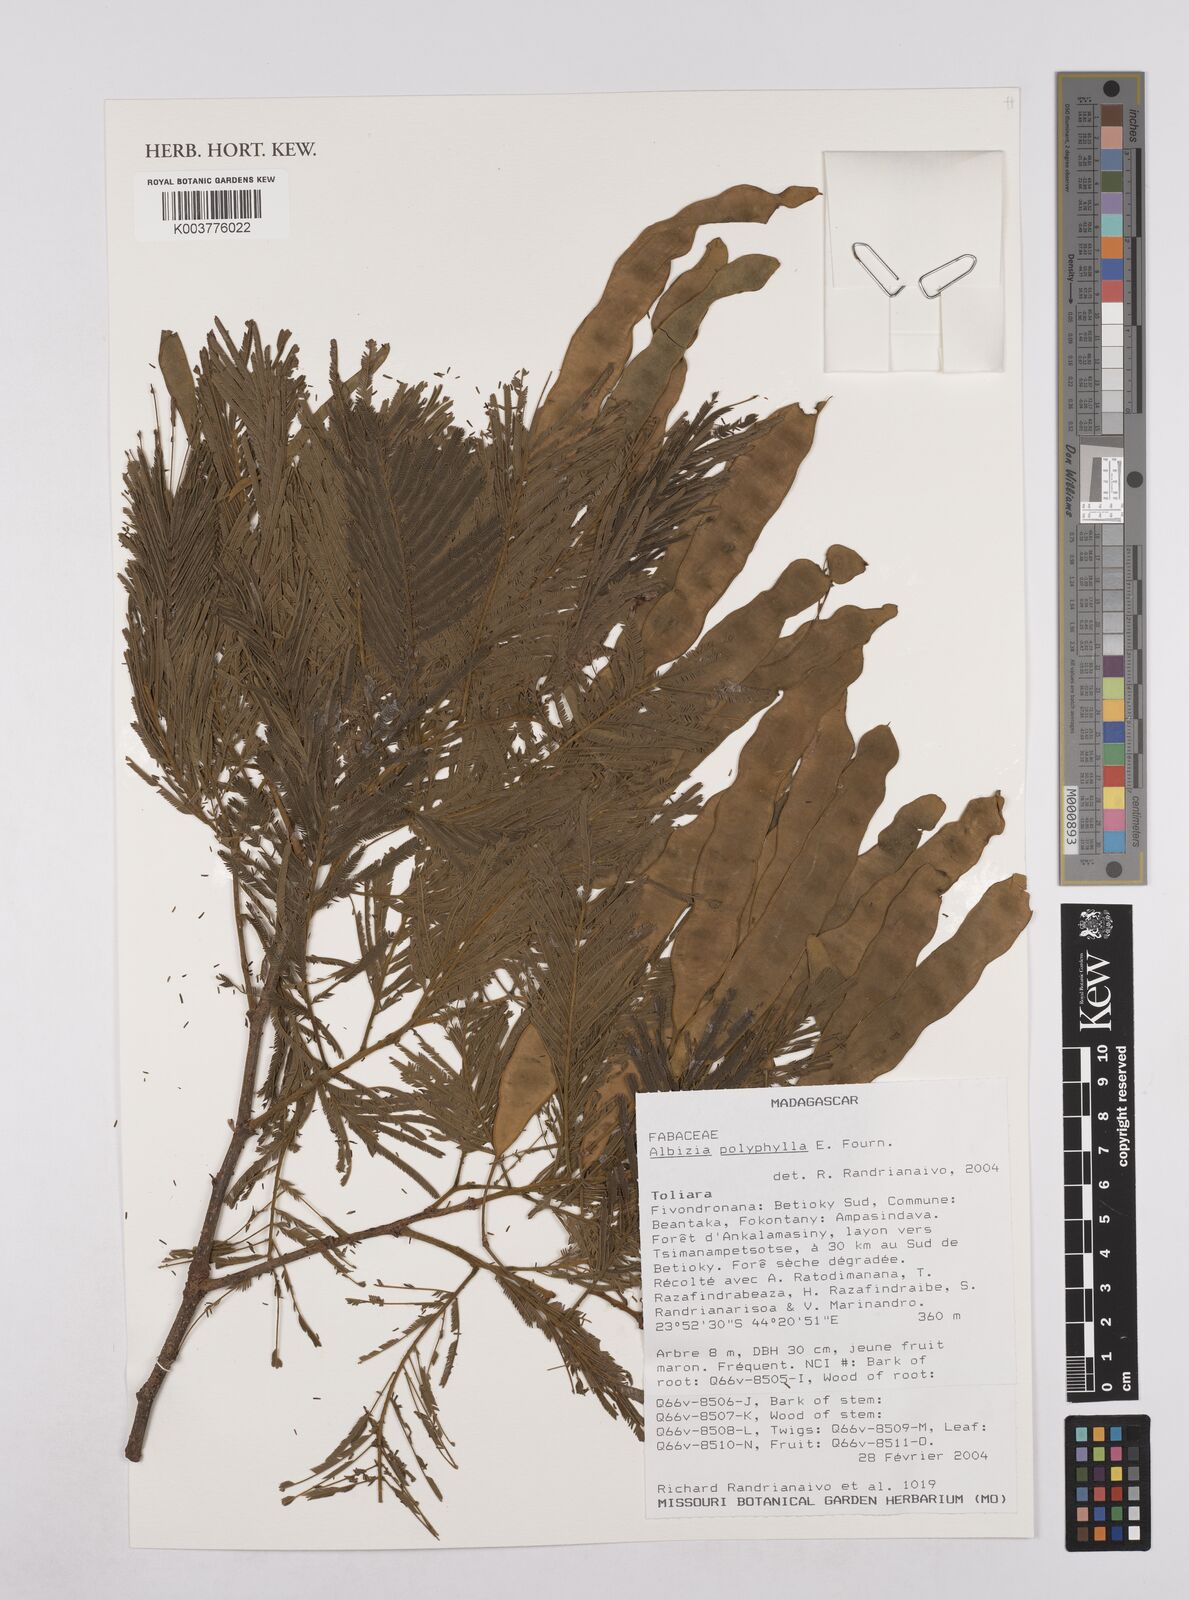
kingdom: Plantae
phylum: Tracheophyta
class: Magnoliopsida
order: Fabales
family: Fabaceae
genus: Albizia
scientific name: Albizia polyphylla
